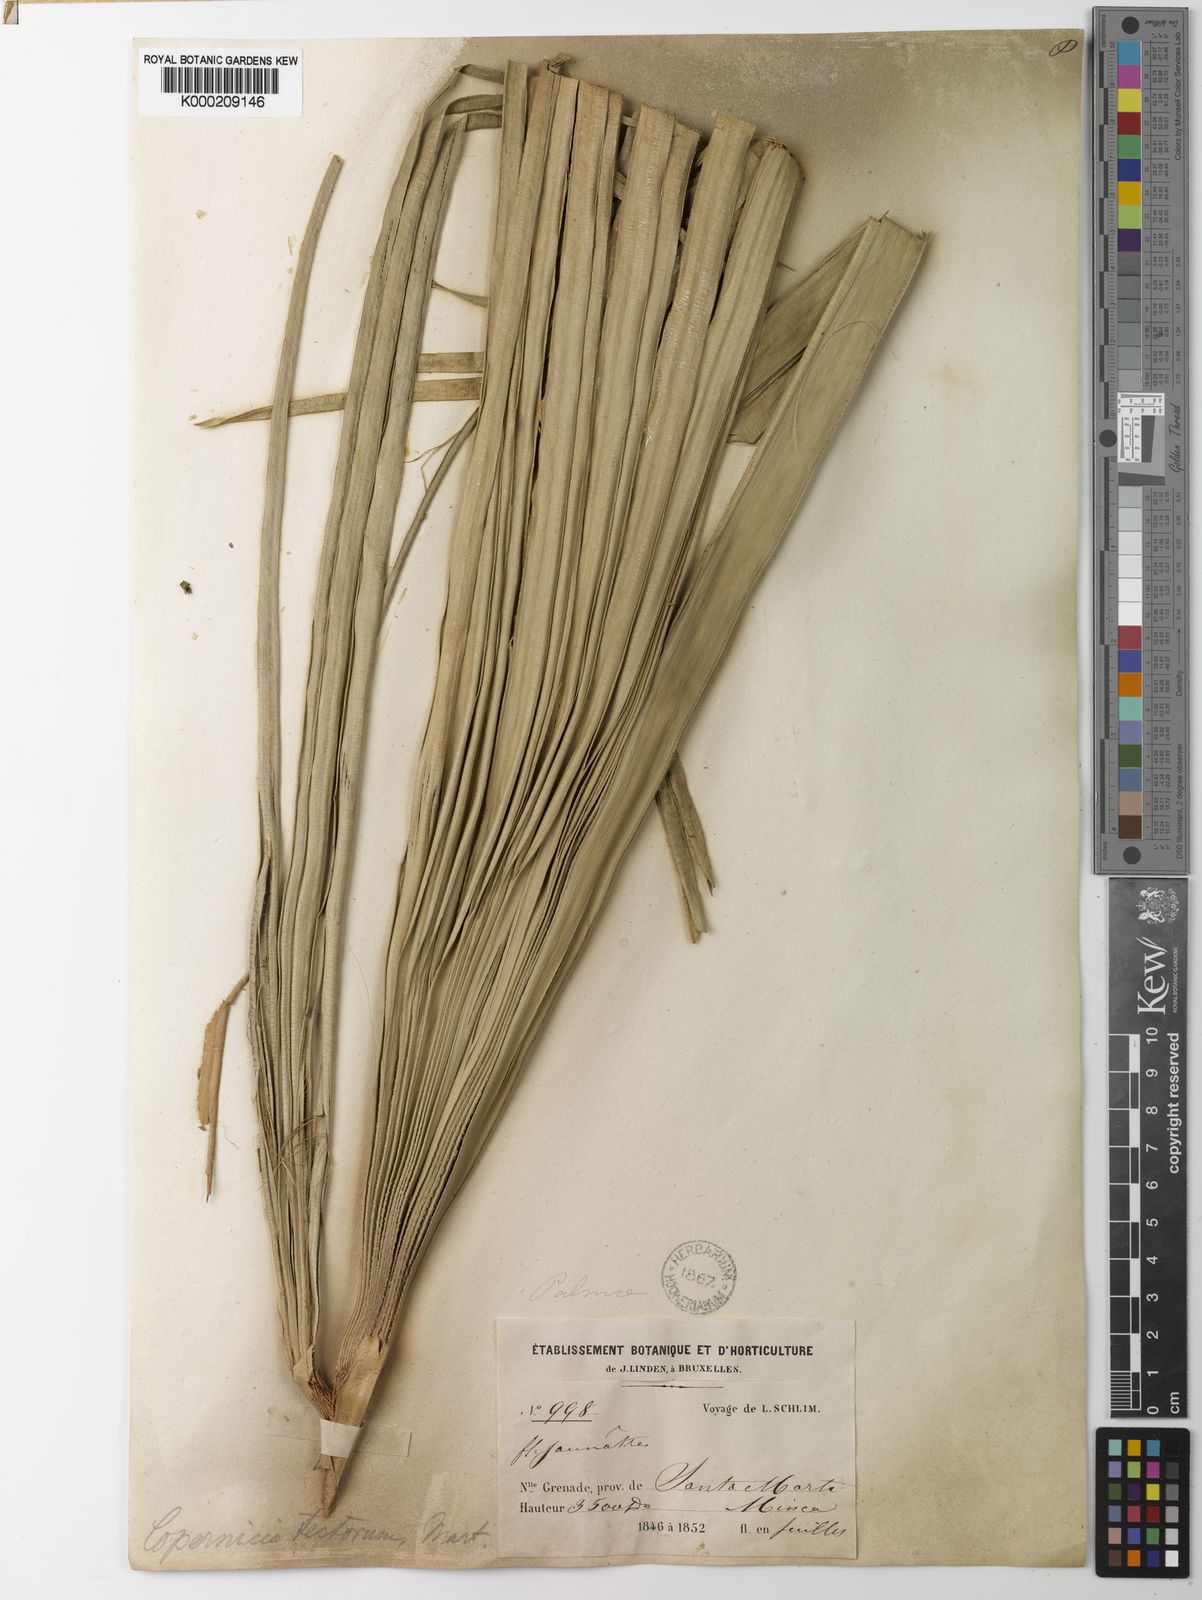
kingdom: Plantae
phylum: Tracheophyta
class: Liliopsida
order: Arecales
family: Arecaceae
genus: Copernicia
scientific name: Copernicia tectorum
